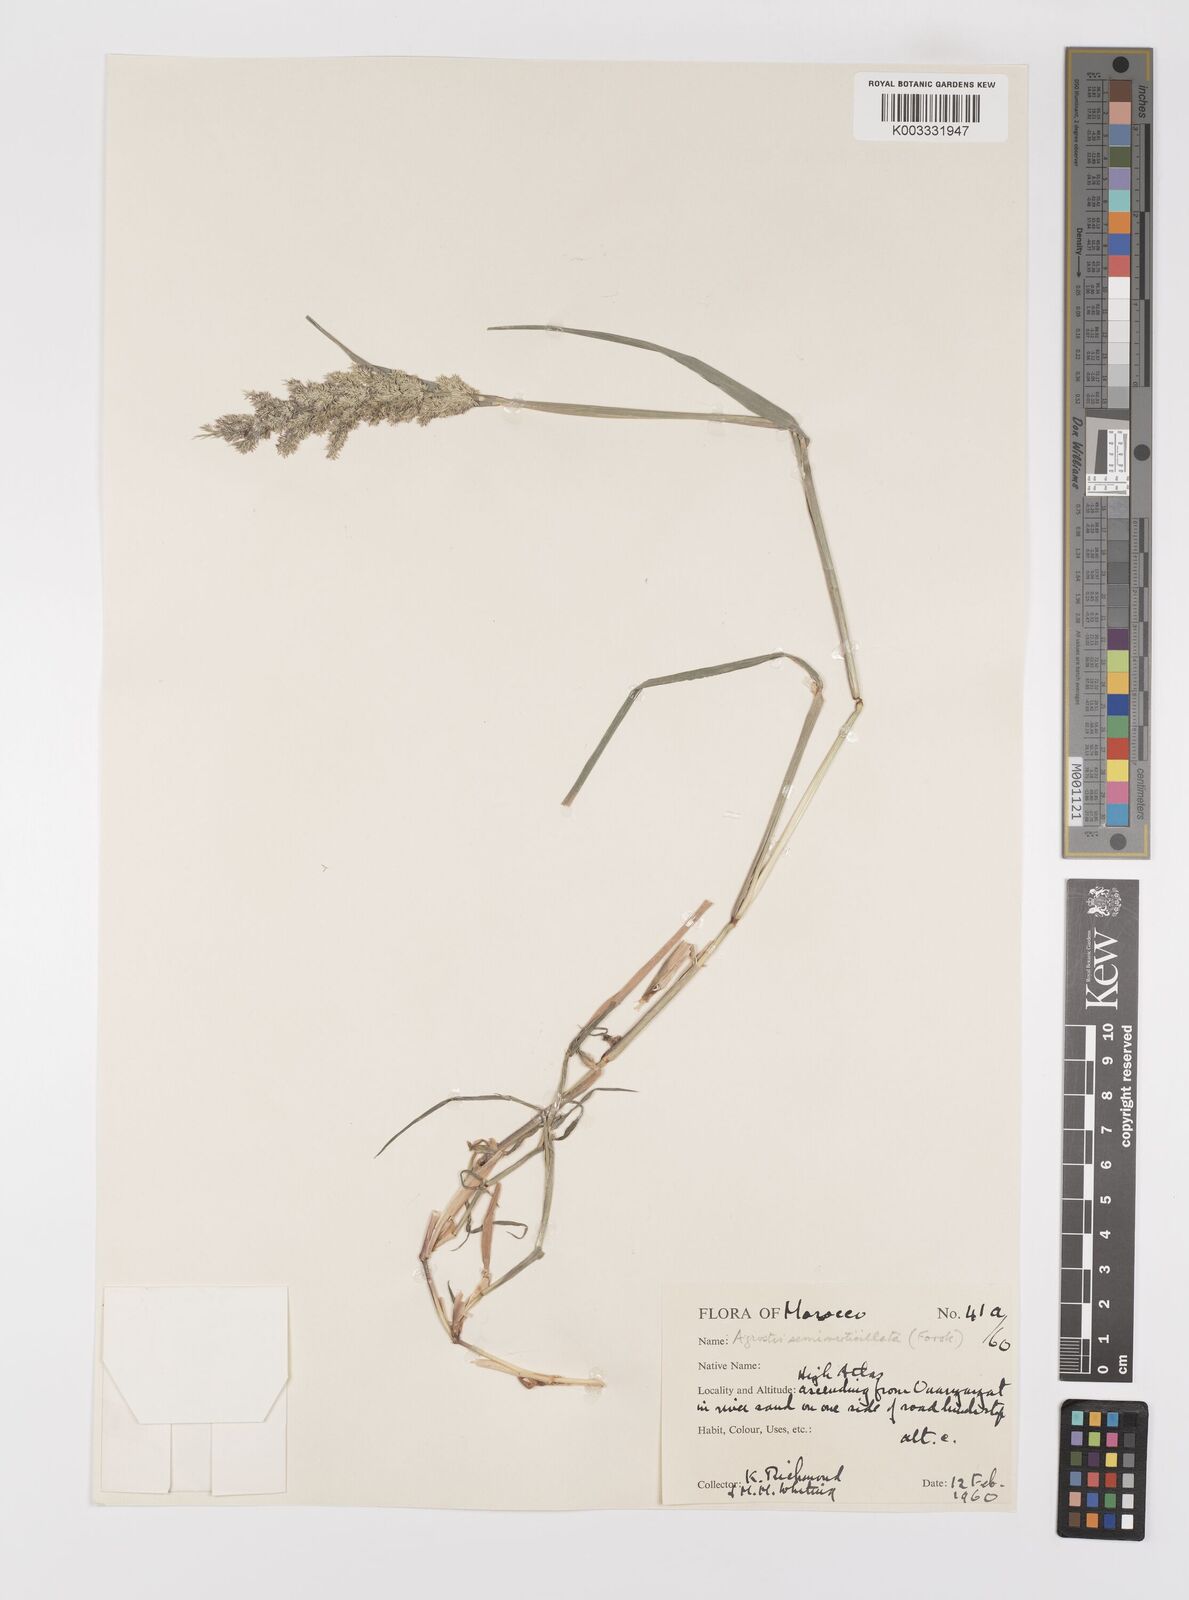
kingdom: Plantae
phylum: Tracheophyta
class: Liliopsida
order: Poales
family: Poaceae
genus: Polypogon
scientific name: Polypogon viridis
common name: Water bent
